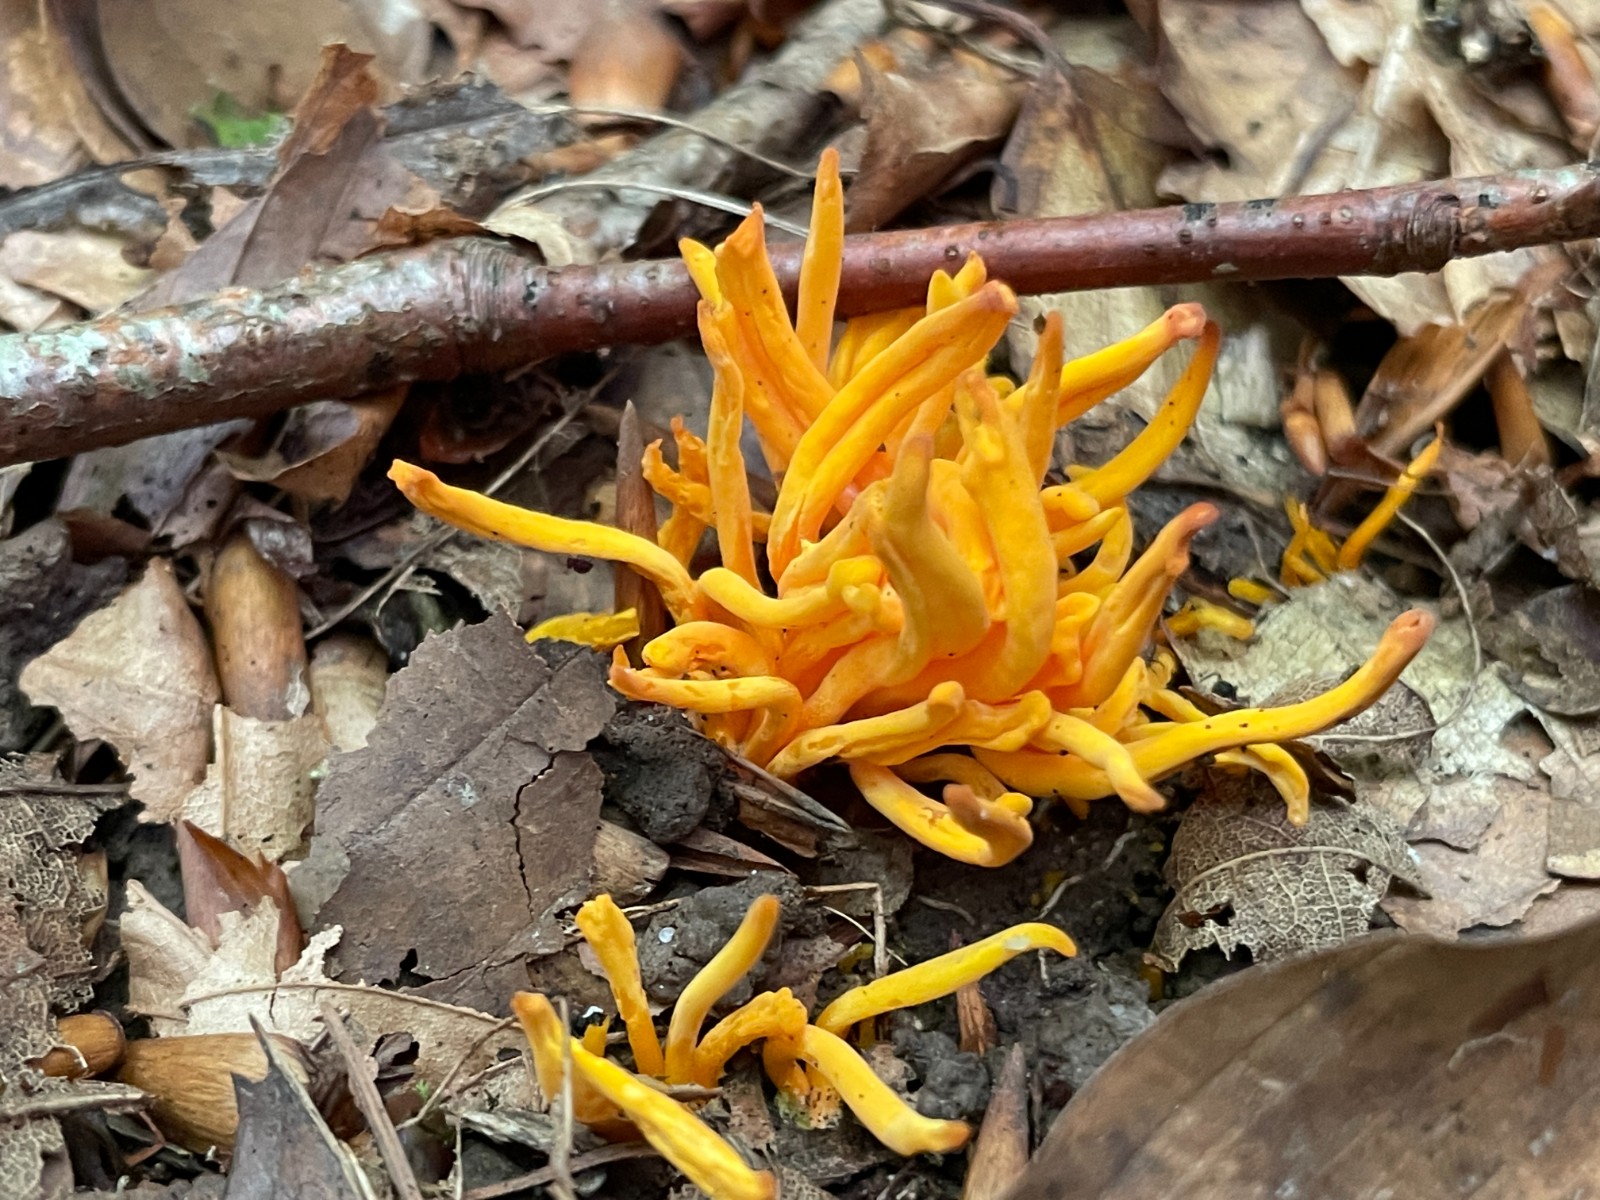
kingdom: Fungi
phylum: Basidiomycota
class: Agaricomycetes
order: Agaricales
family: Clavariaceae
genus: Clavulinopsis
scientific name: Clavulinopsis laeticolor
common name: flamme-køllesvamp
